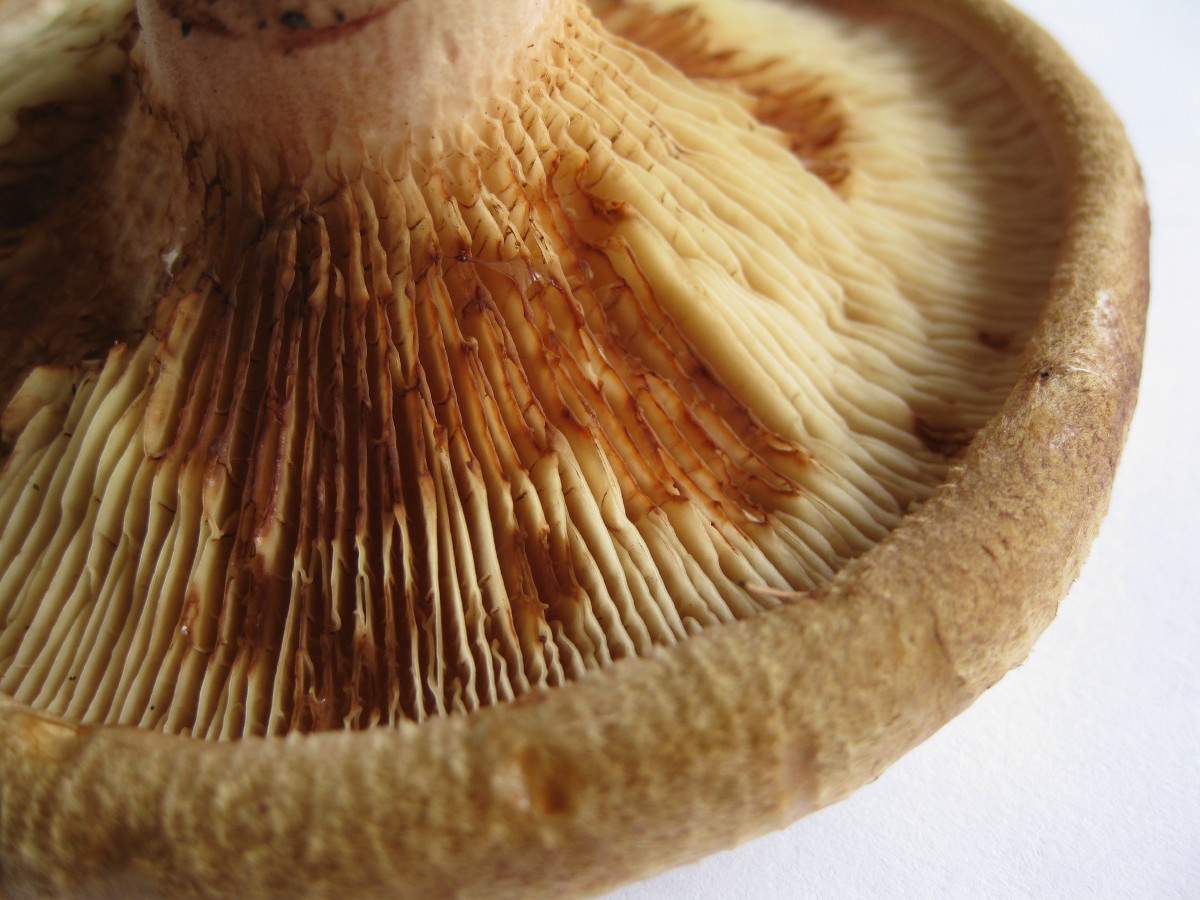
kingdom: Fungi
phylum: Basidiomycota
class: Agaricomycetes
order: Boletales
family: Paxillaceae
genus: Paxillus
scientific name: Paxillus involutus
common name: almindelig netbladhat
